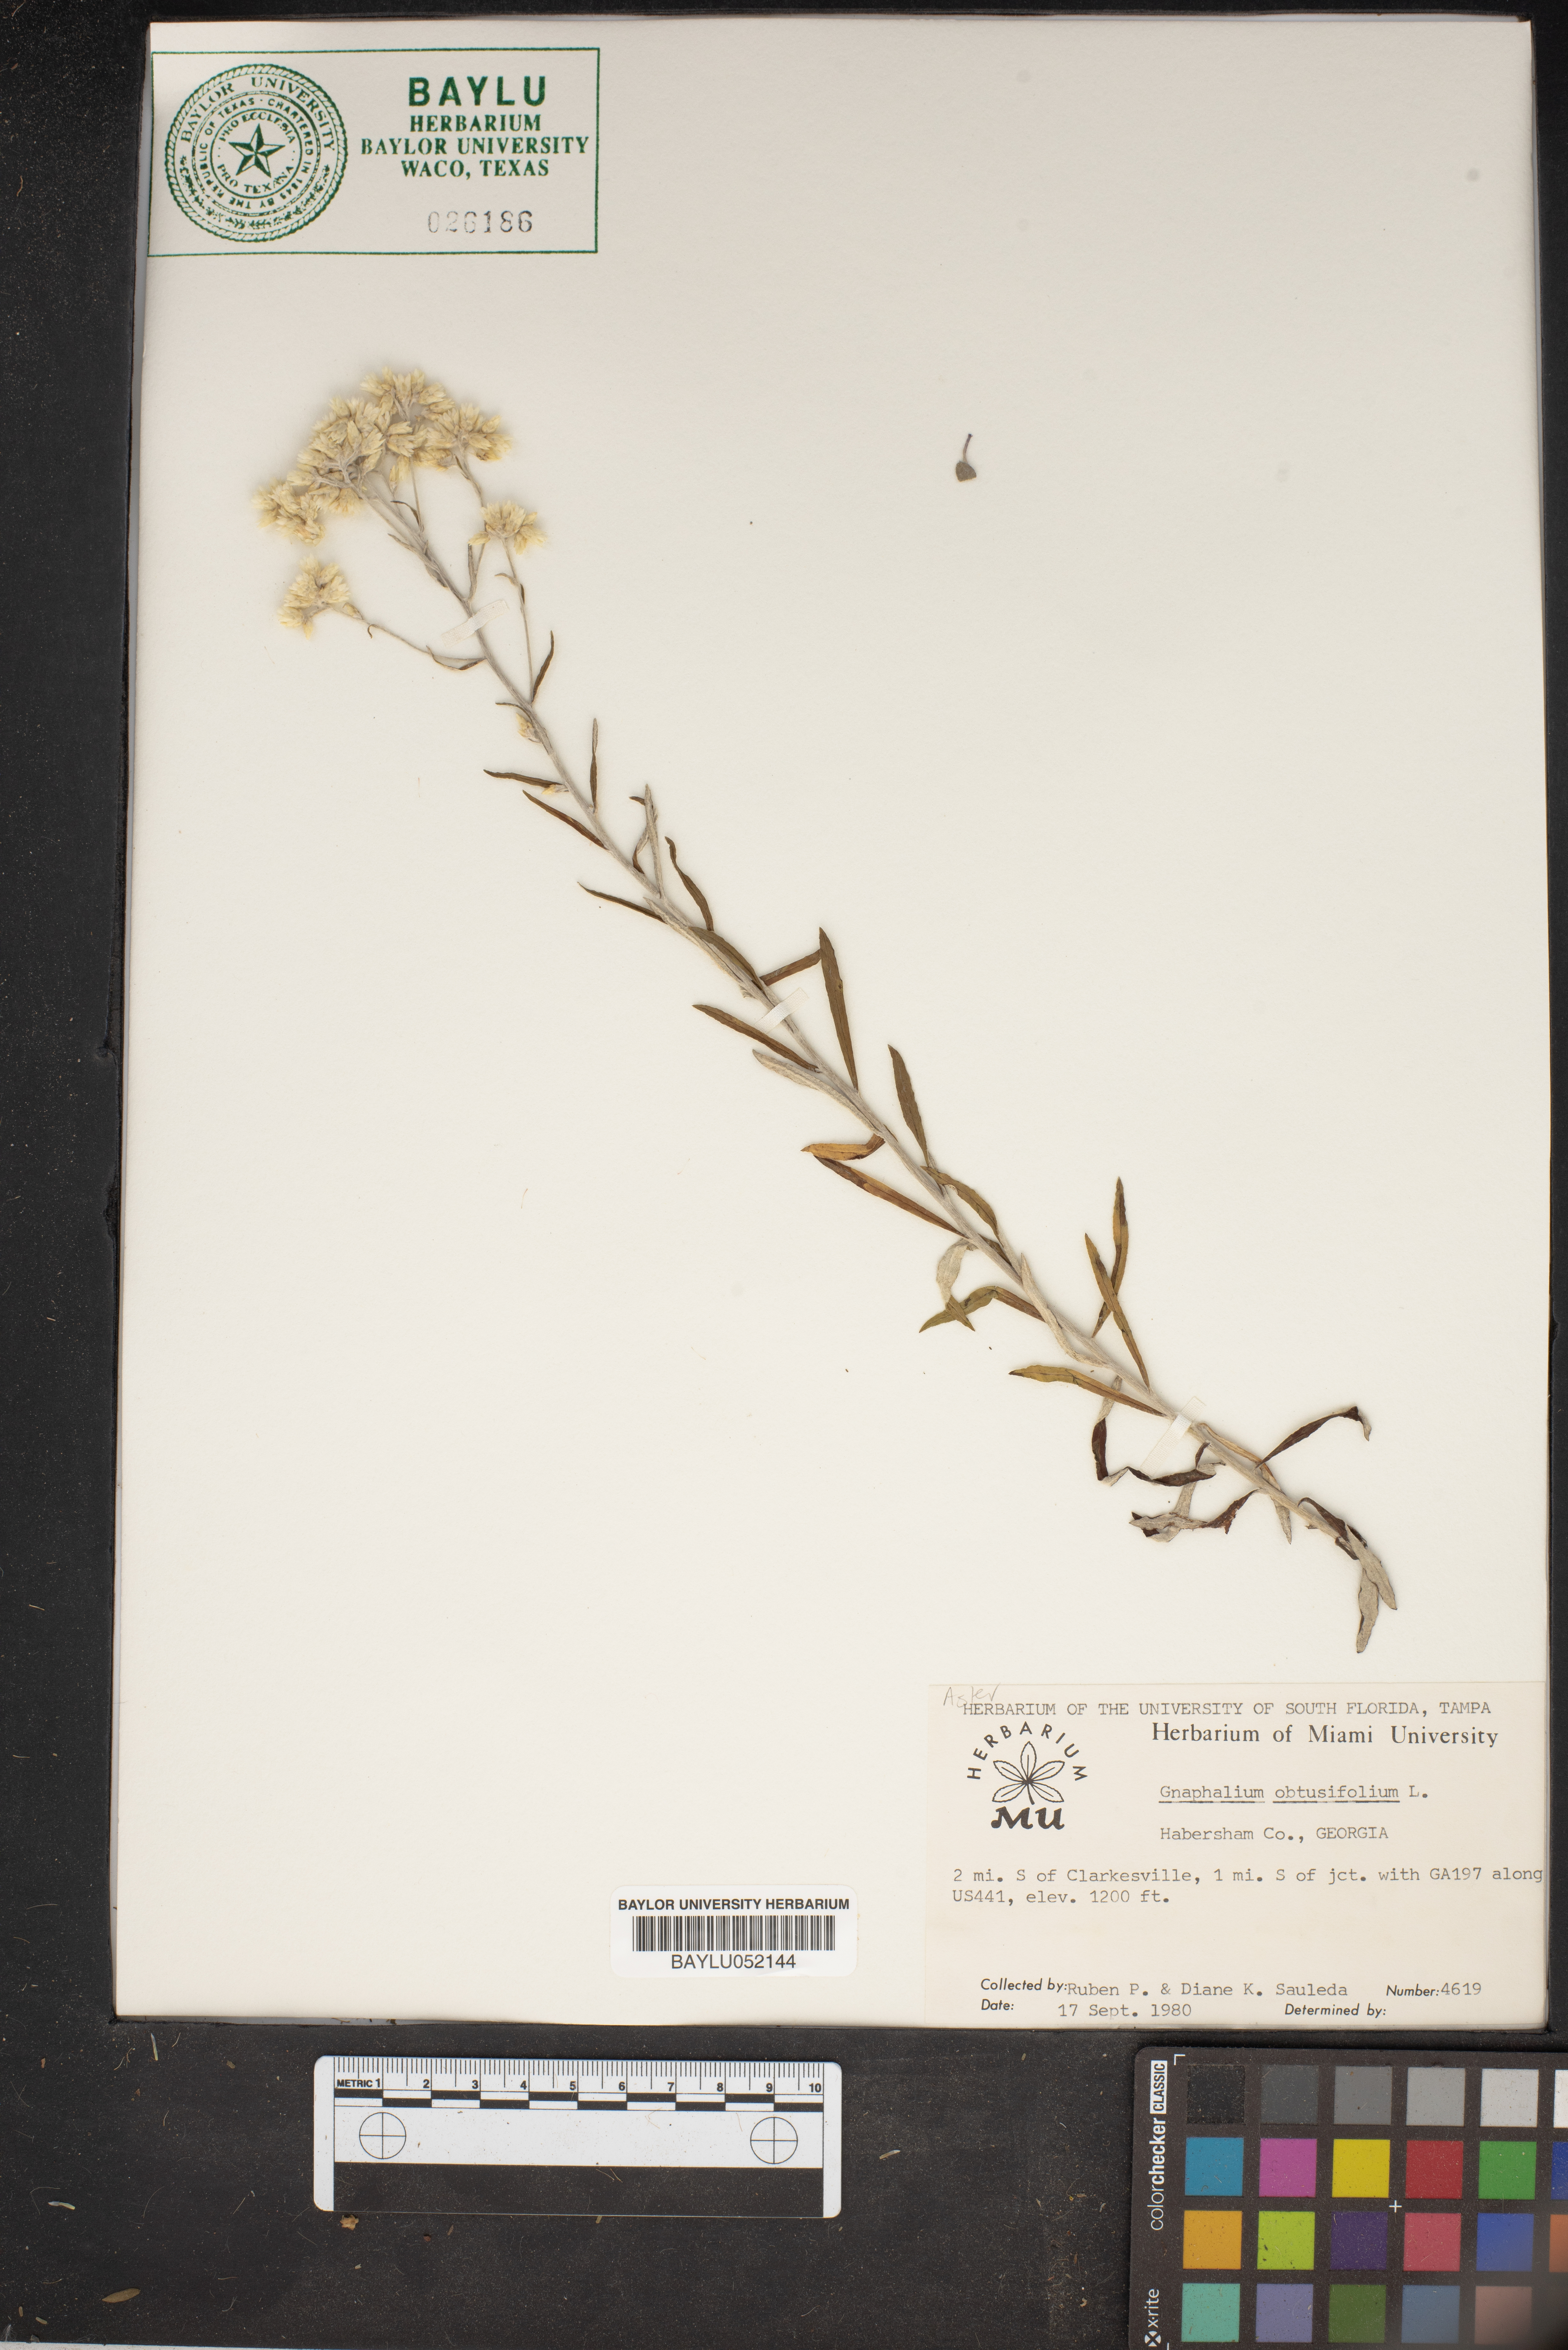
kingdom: Plantae
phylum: Tracheophyta
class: Magnoliopsida
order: Asterales
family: Asteraceae
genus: Pseudognaphalium
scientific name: Pseudognaphalium obtusifolium
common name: Eastern rabbit-tobacco
